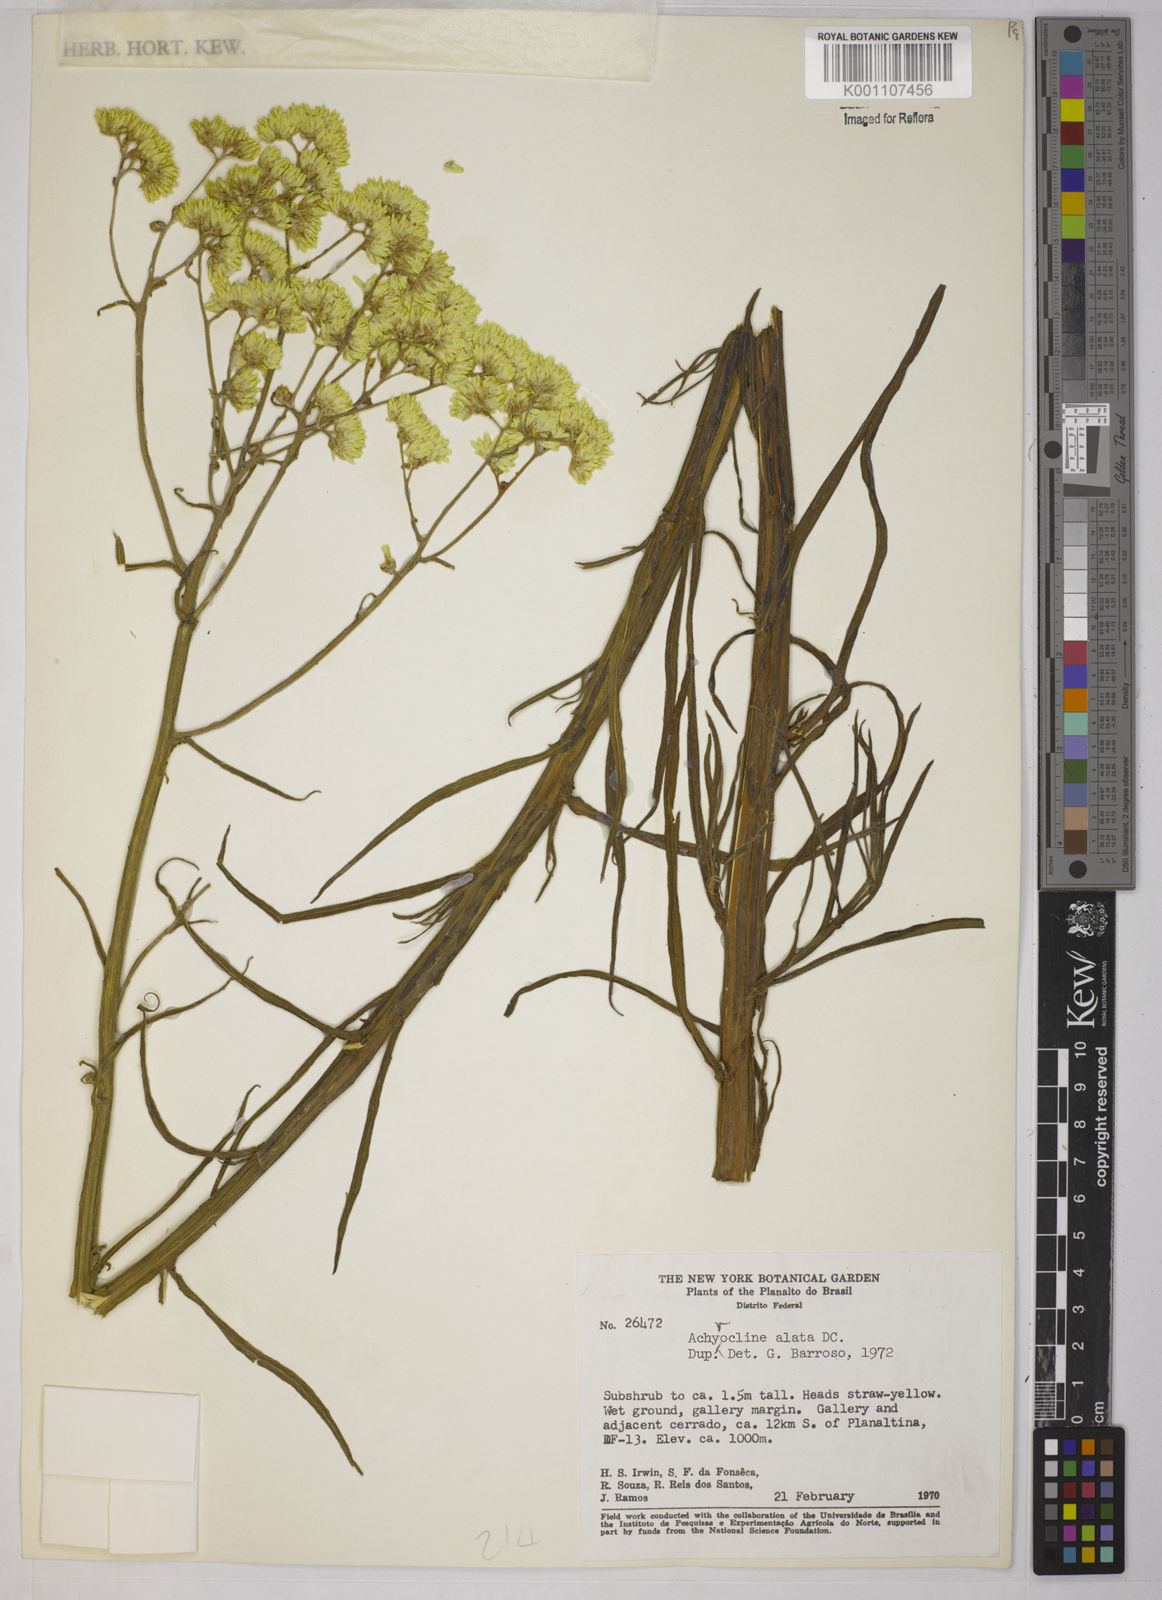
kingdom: Plantae
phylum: Tracheophyta
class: Magnoliopsida
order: Asterales
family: Asteraceae
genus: Achyrocline
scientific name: Achyrocline alata
